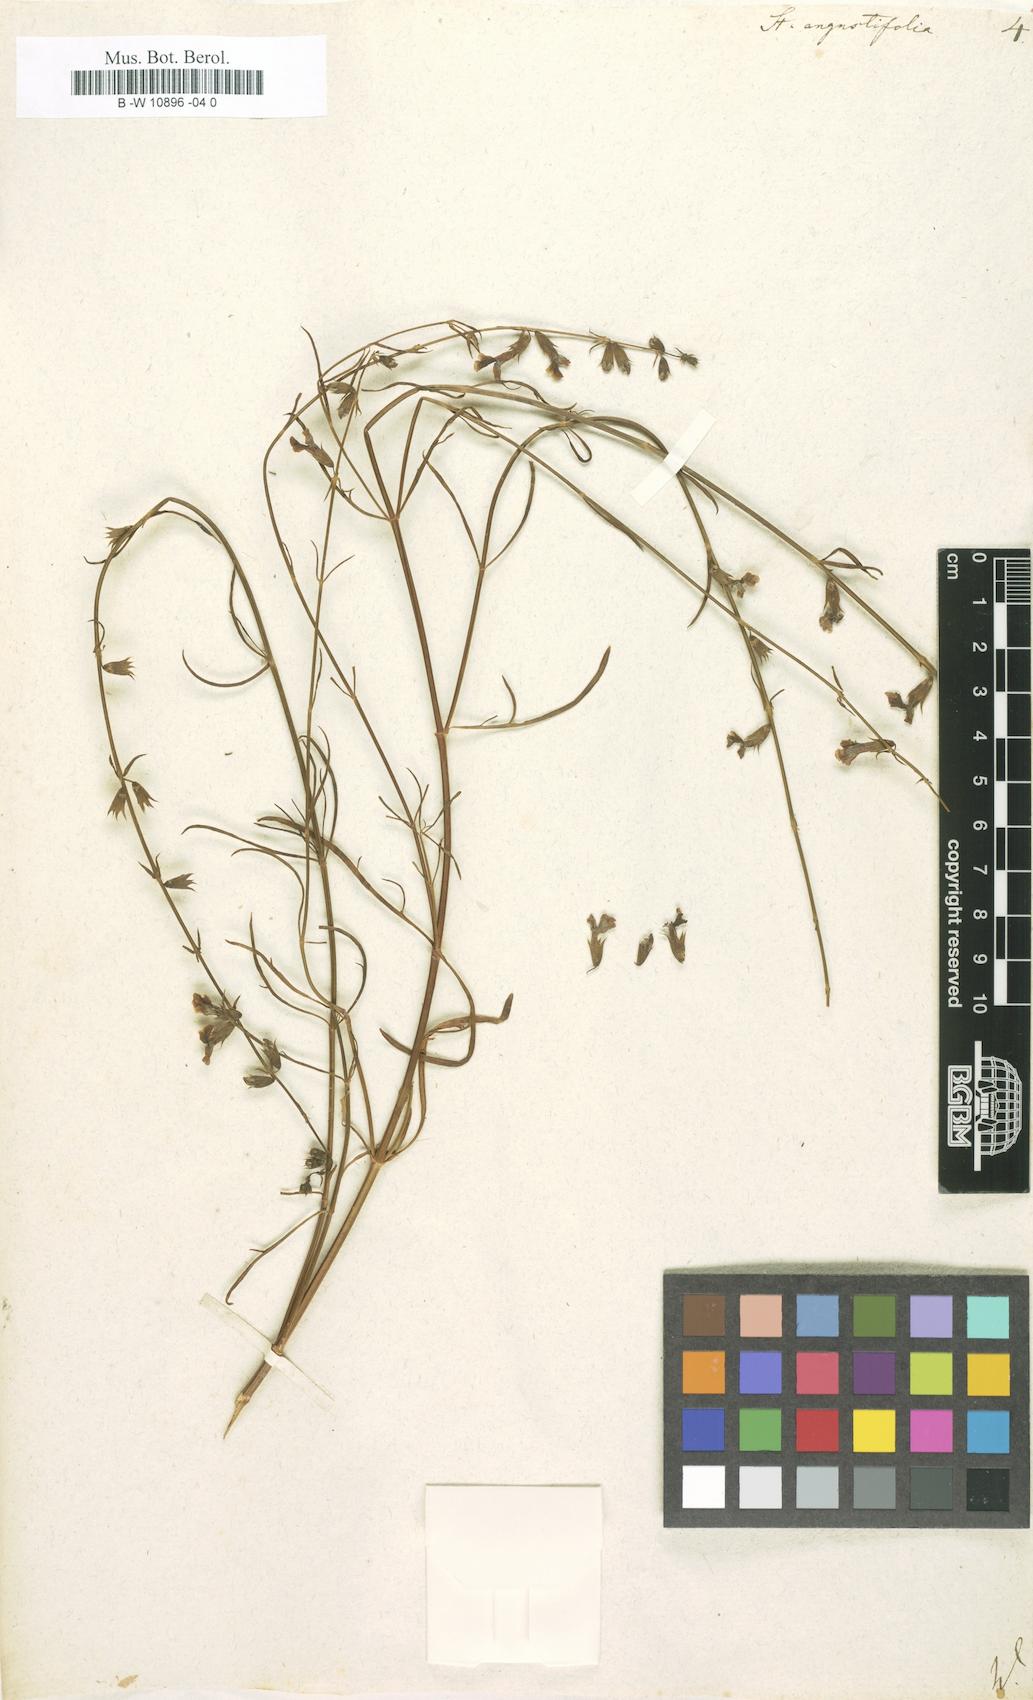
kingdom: Plantae
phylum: Tracheophyta
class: Magnoliopsida
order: Lamiales
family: Lamiaceae
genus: Stachys
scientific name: Stachys angustifolia
